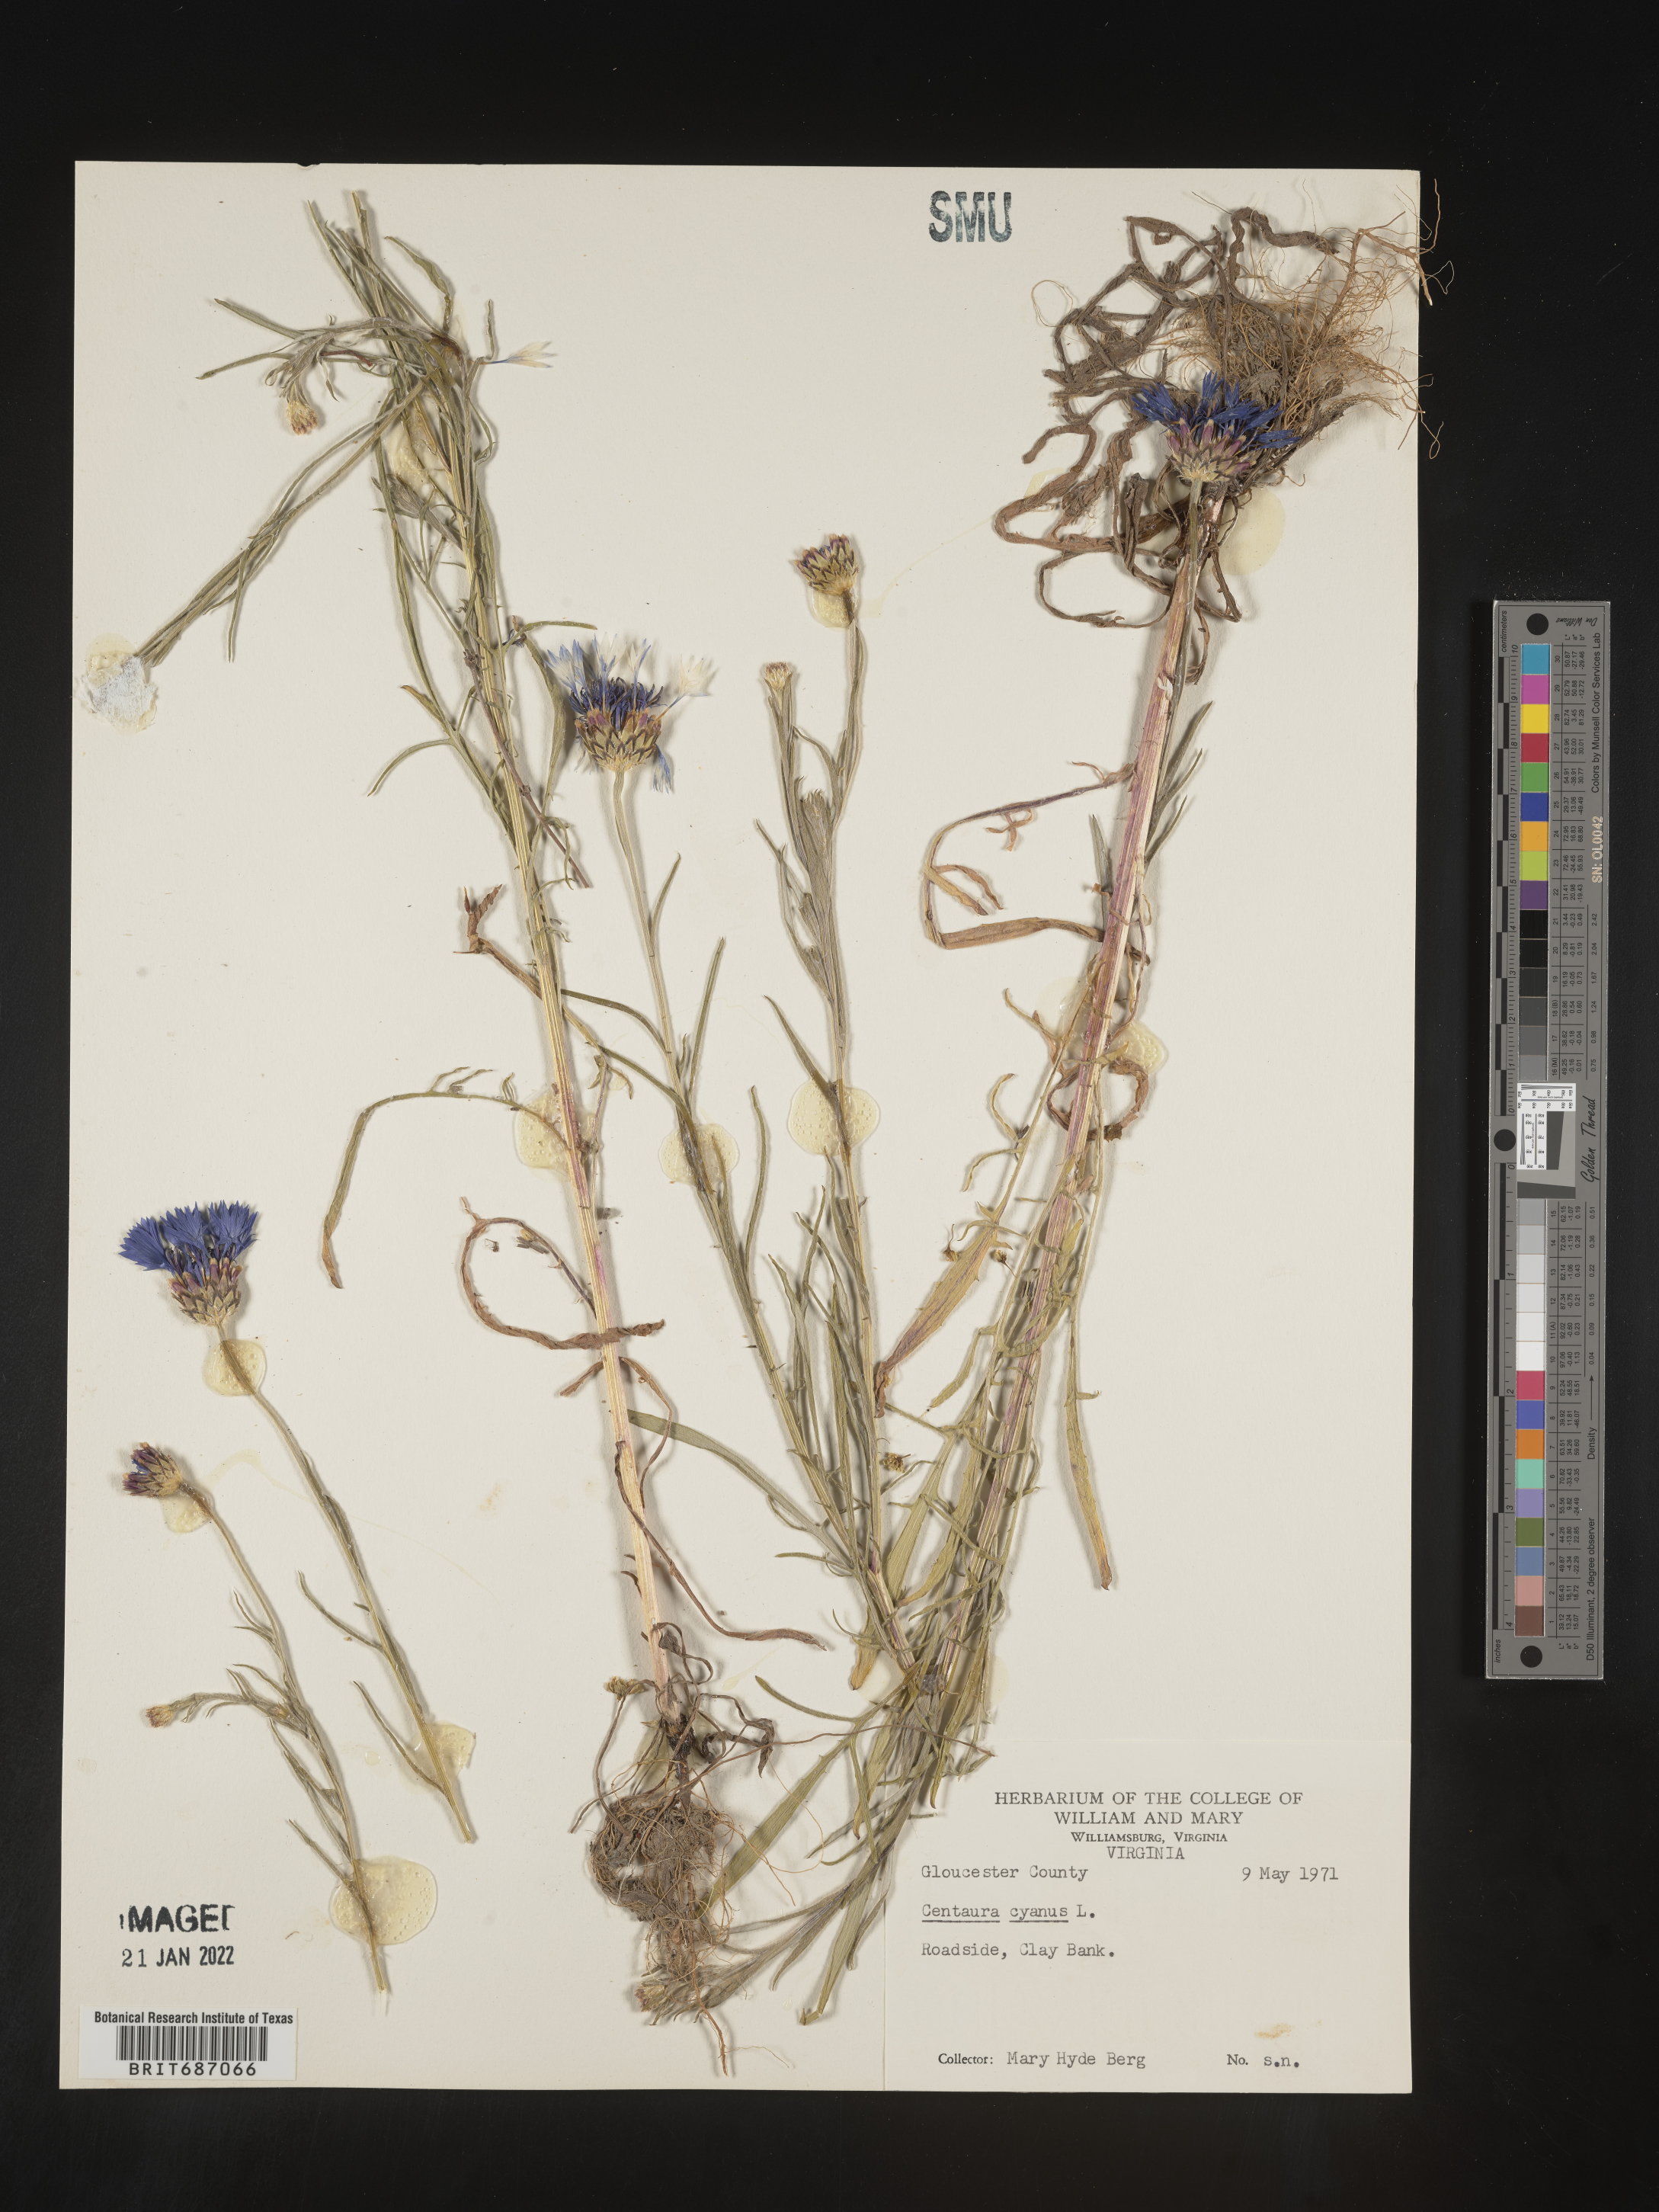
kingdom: Plantae
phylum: Tracheophyta
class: Magnoliopsida
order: Asterales
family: Asteraceae
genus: Centaurea
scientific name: Centaurea cyanus
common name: Cornflower
